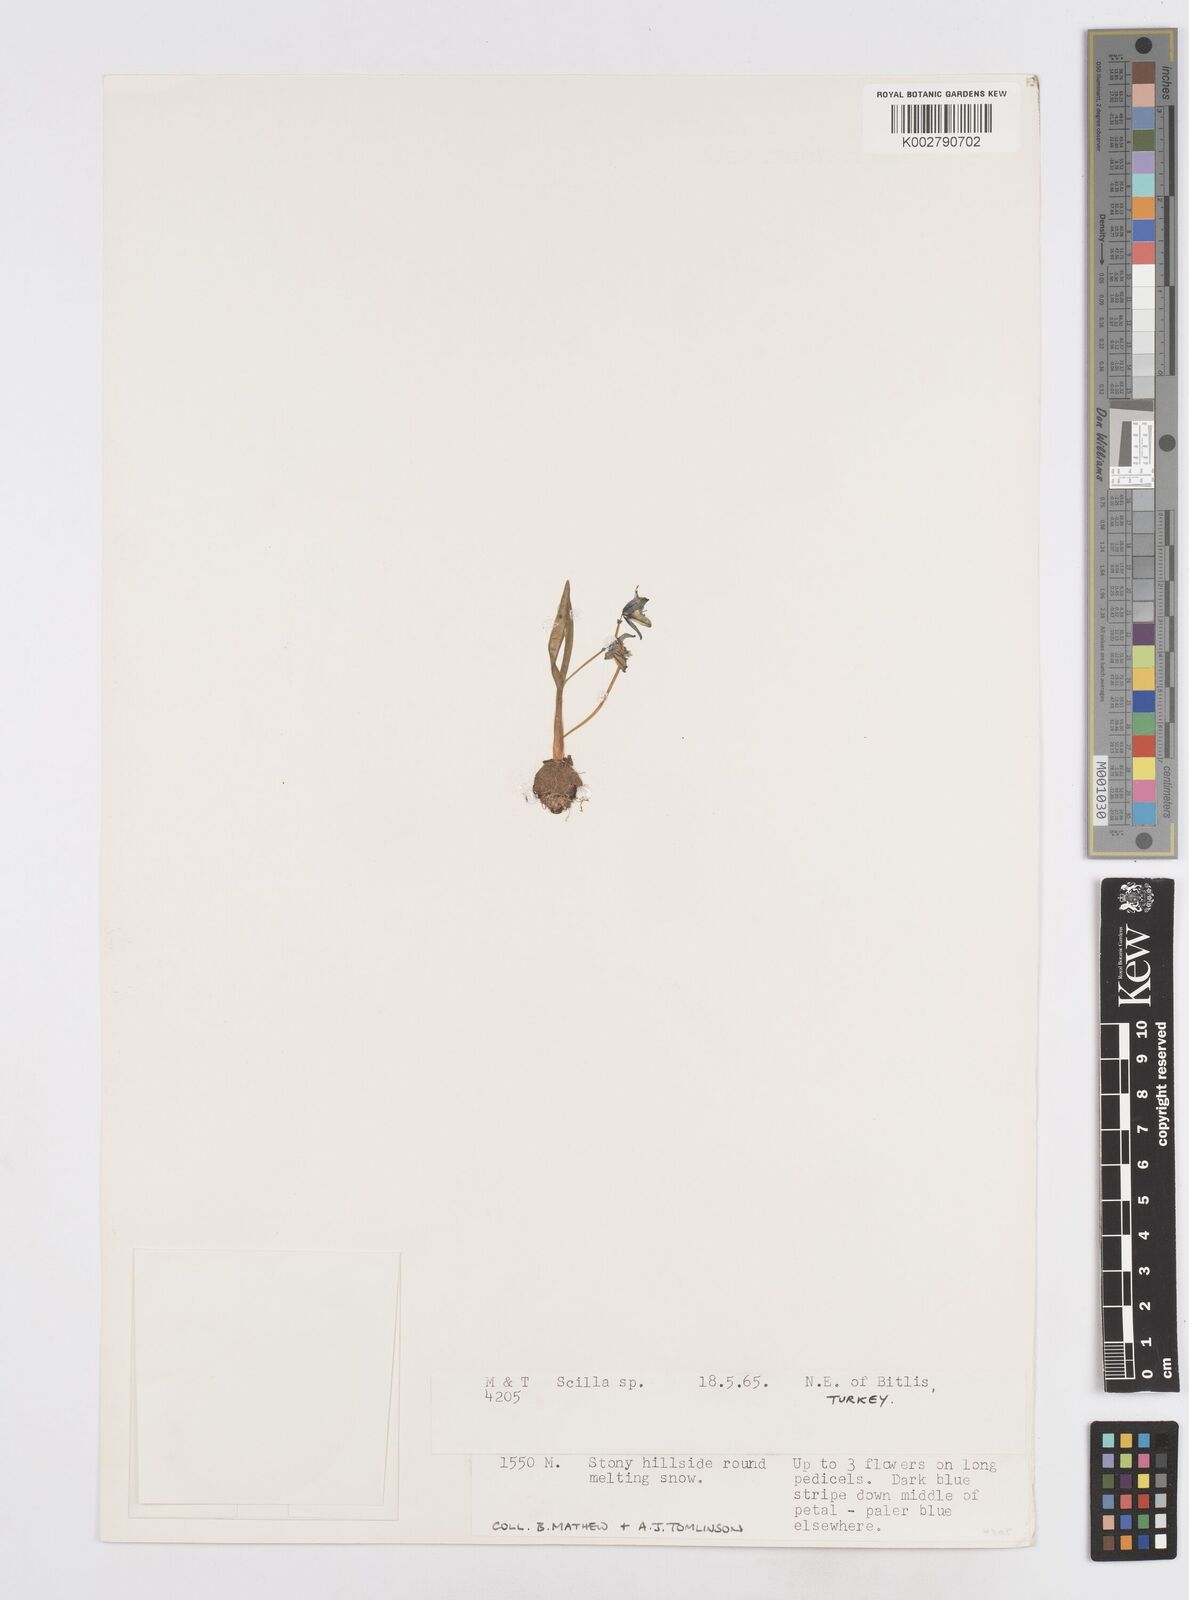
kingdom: Plantae
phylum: Tracheophyta
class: Liliopsida
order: Asparagales
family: Asparagaceae
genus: Scilla
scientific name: Scilla siberica
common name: Siberian squill
